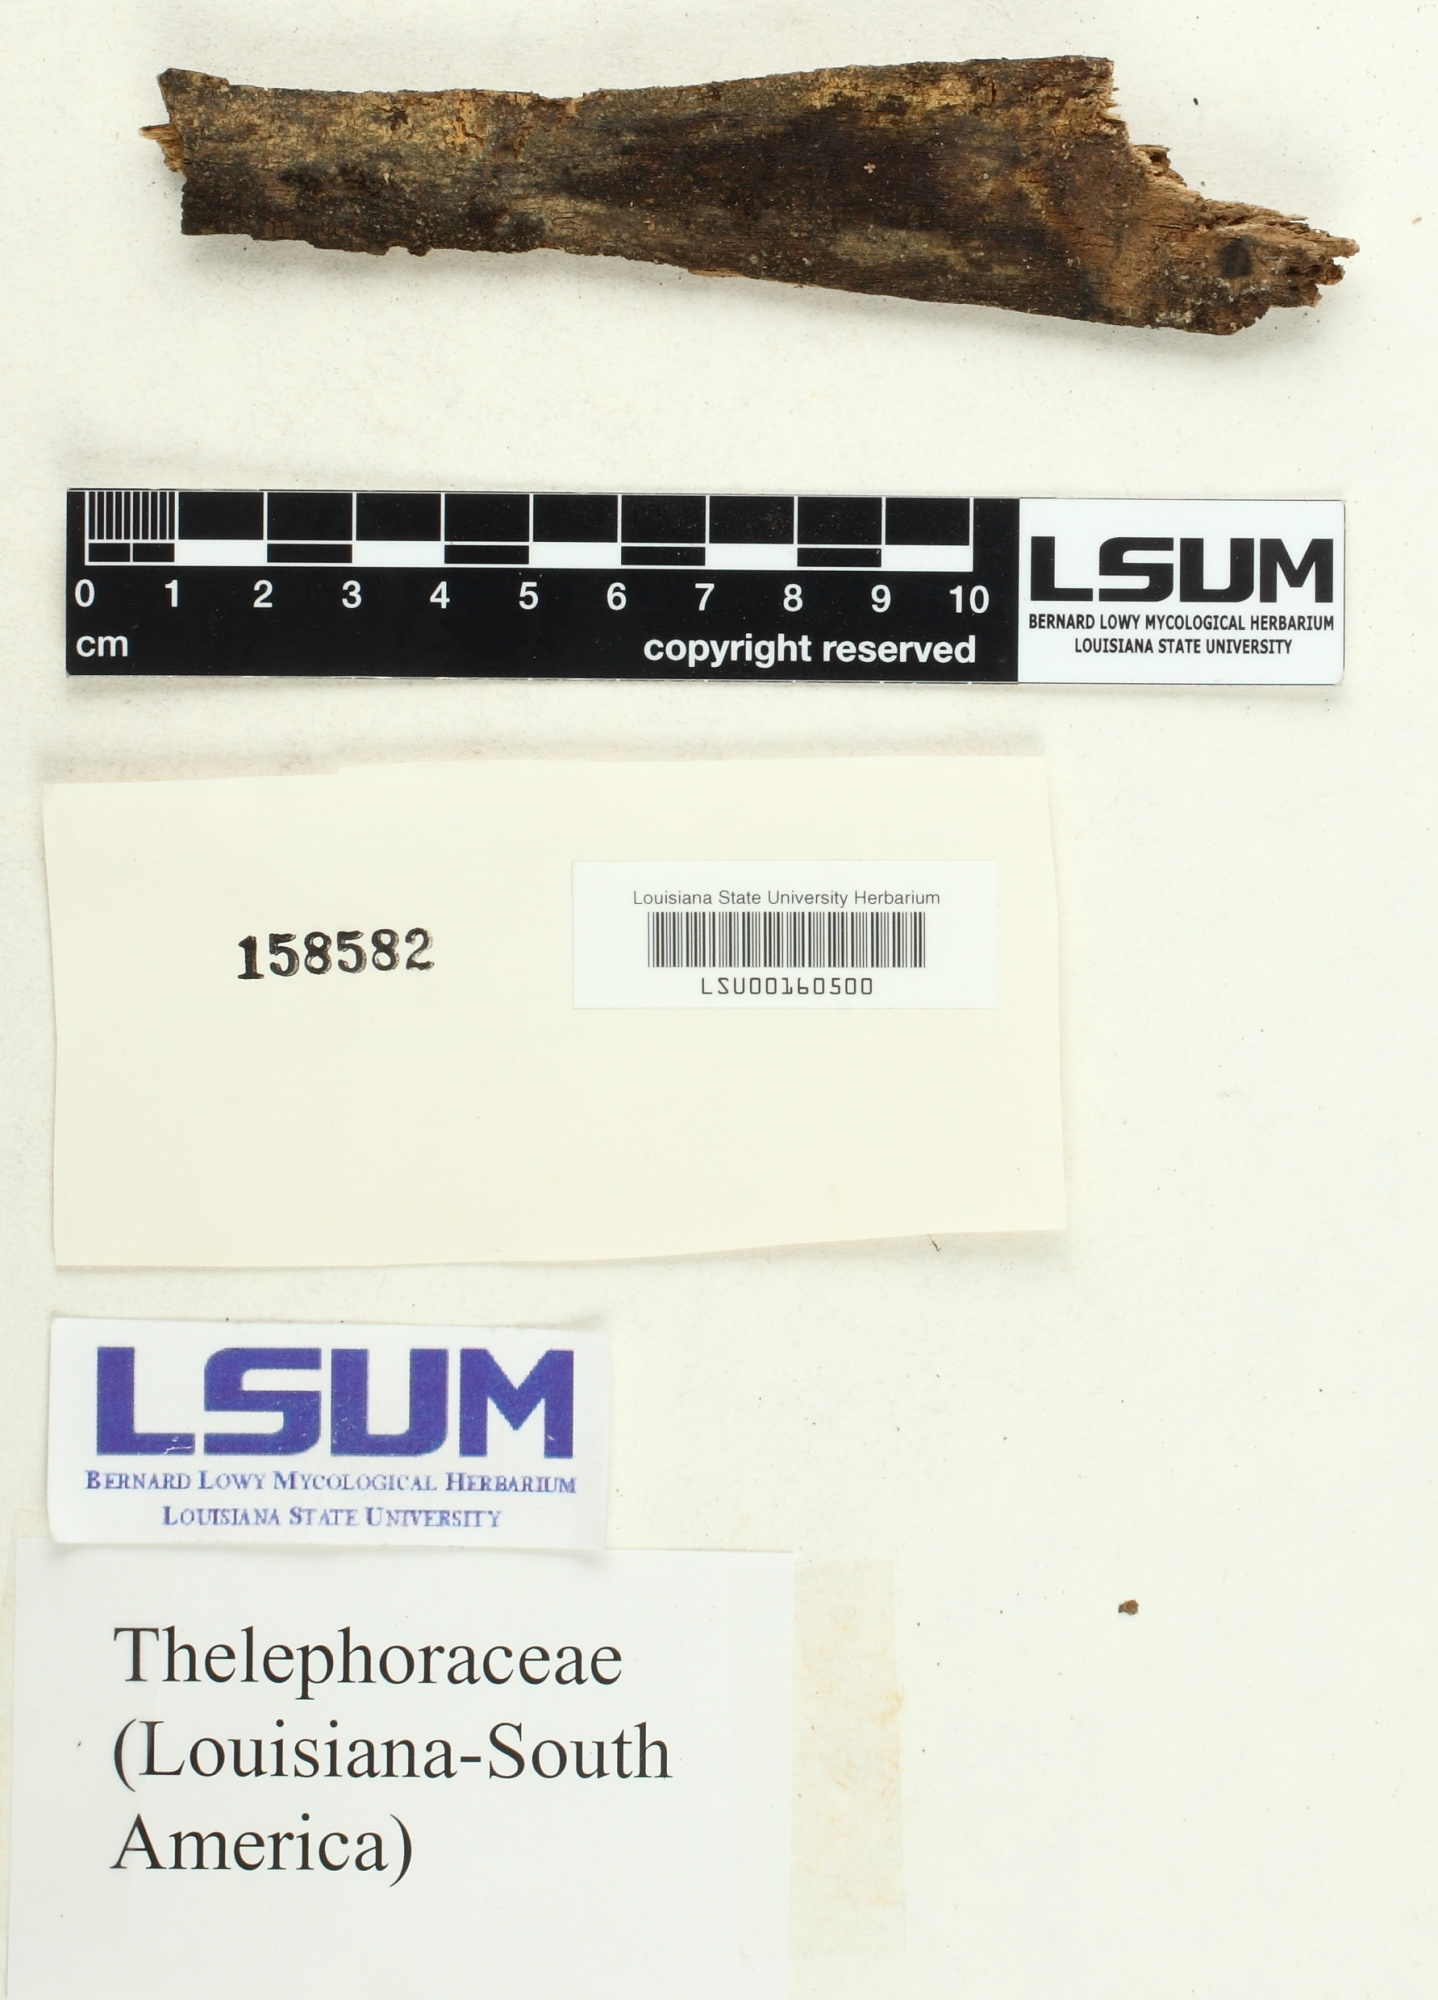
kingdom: Fungi
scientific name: Fungi
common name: Fungi
